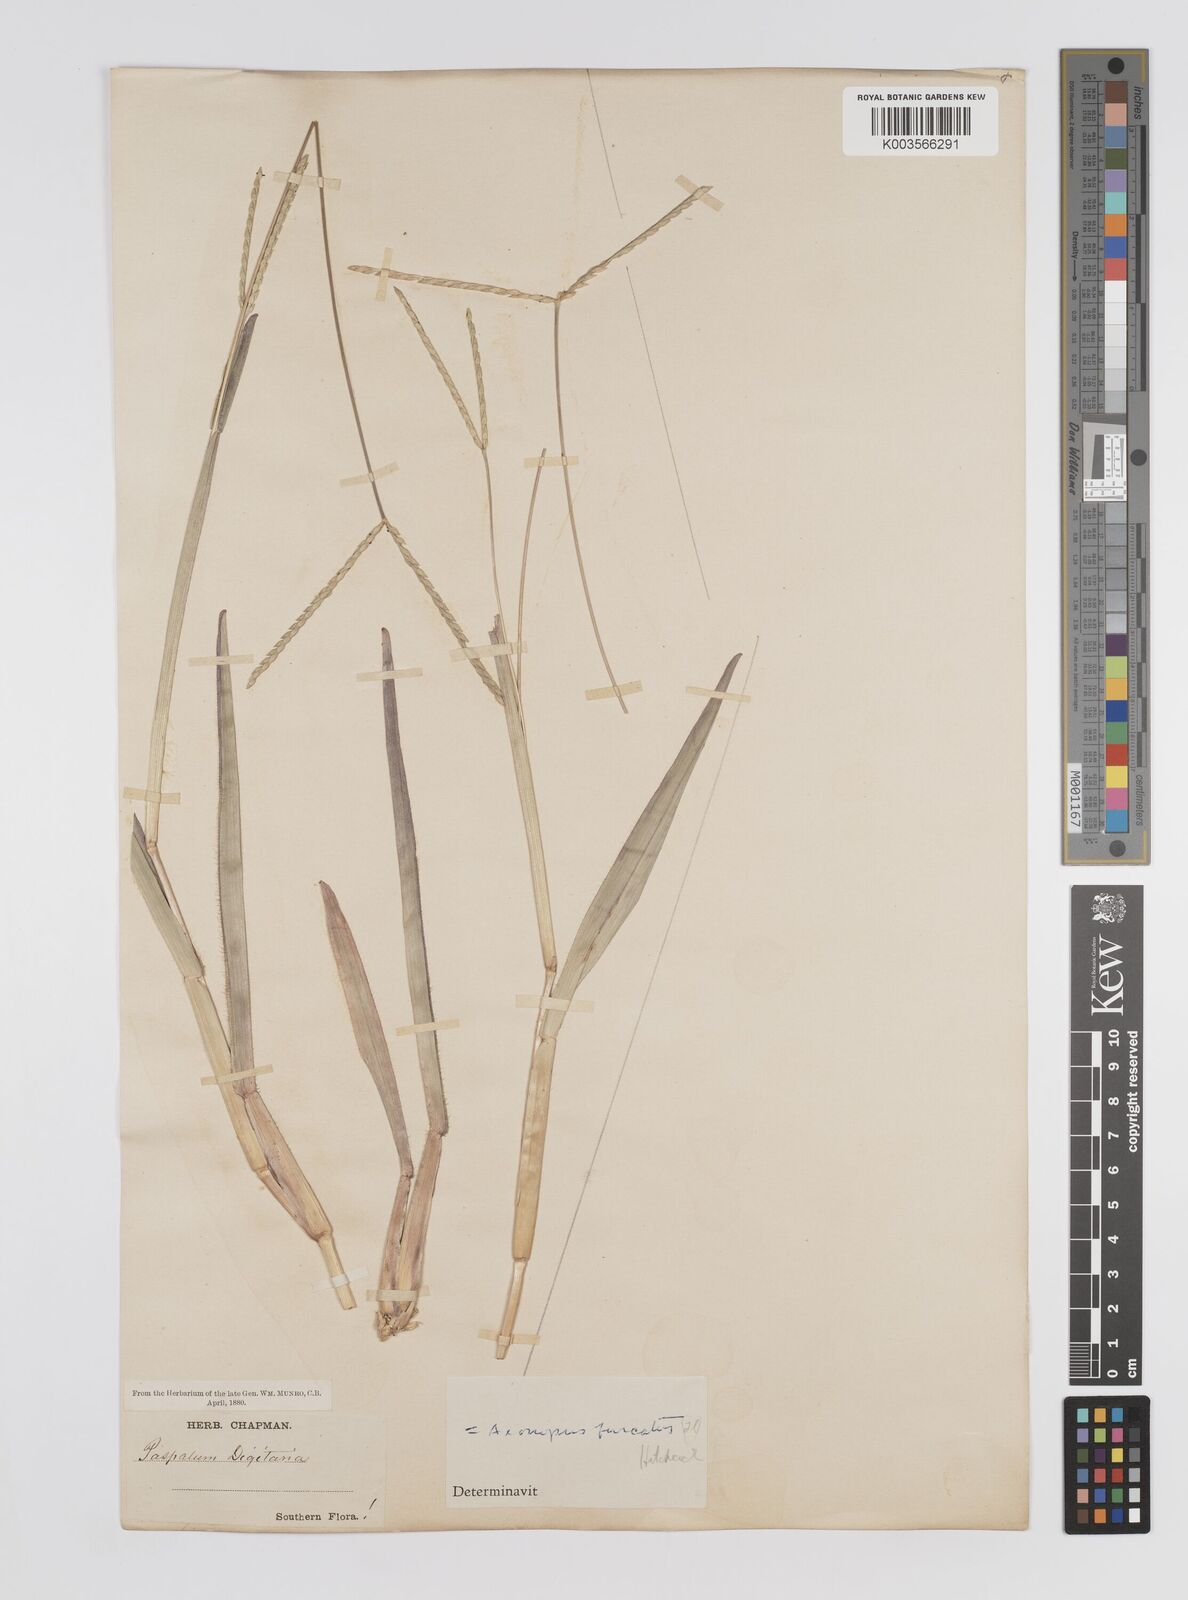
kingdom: Plantae
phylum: Tracheophyta
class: Liliopsida
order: Poales
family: Poaceae
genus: Axonopus
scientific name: Axonopus furcatus
